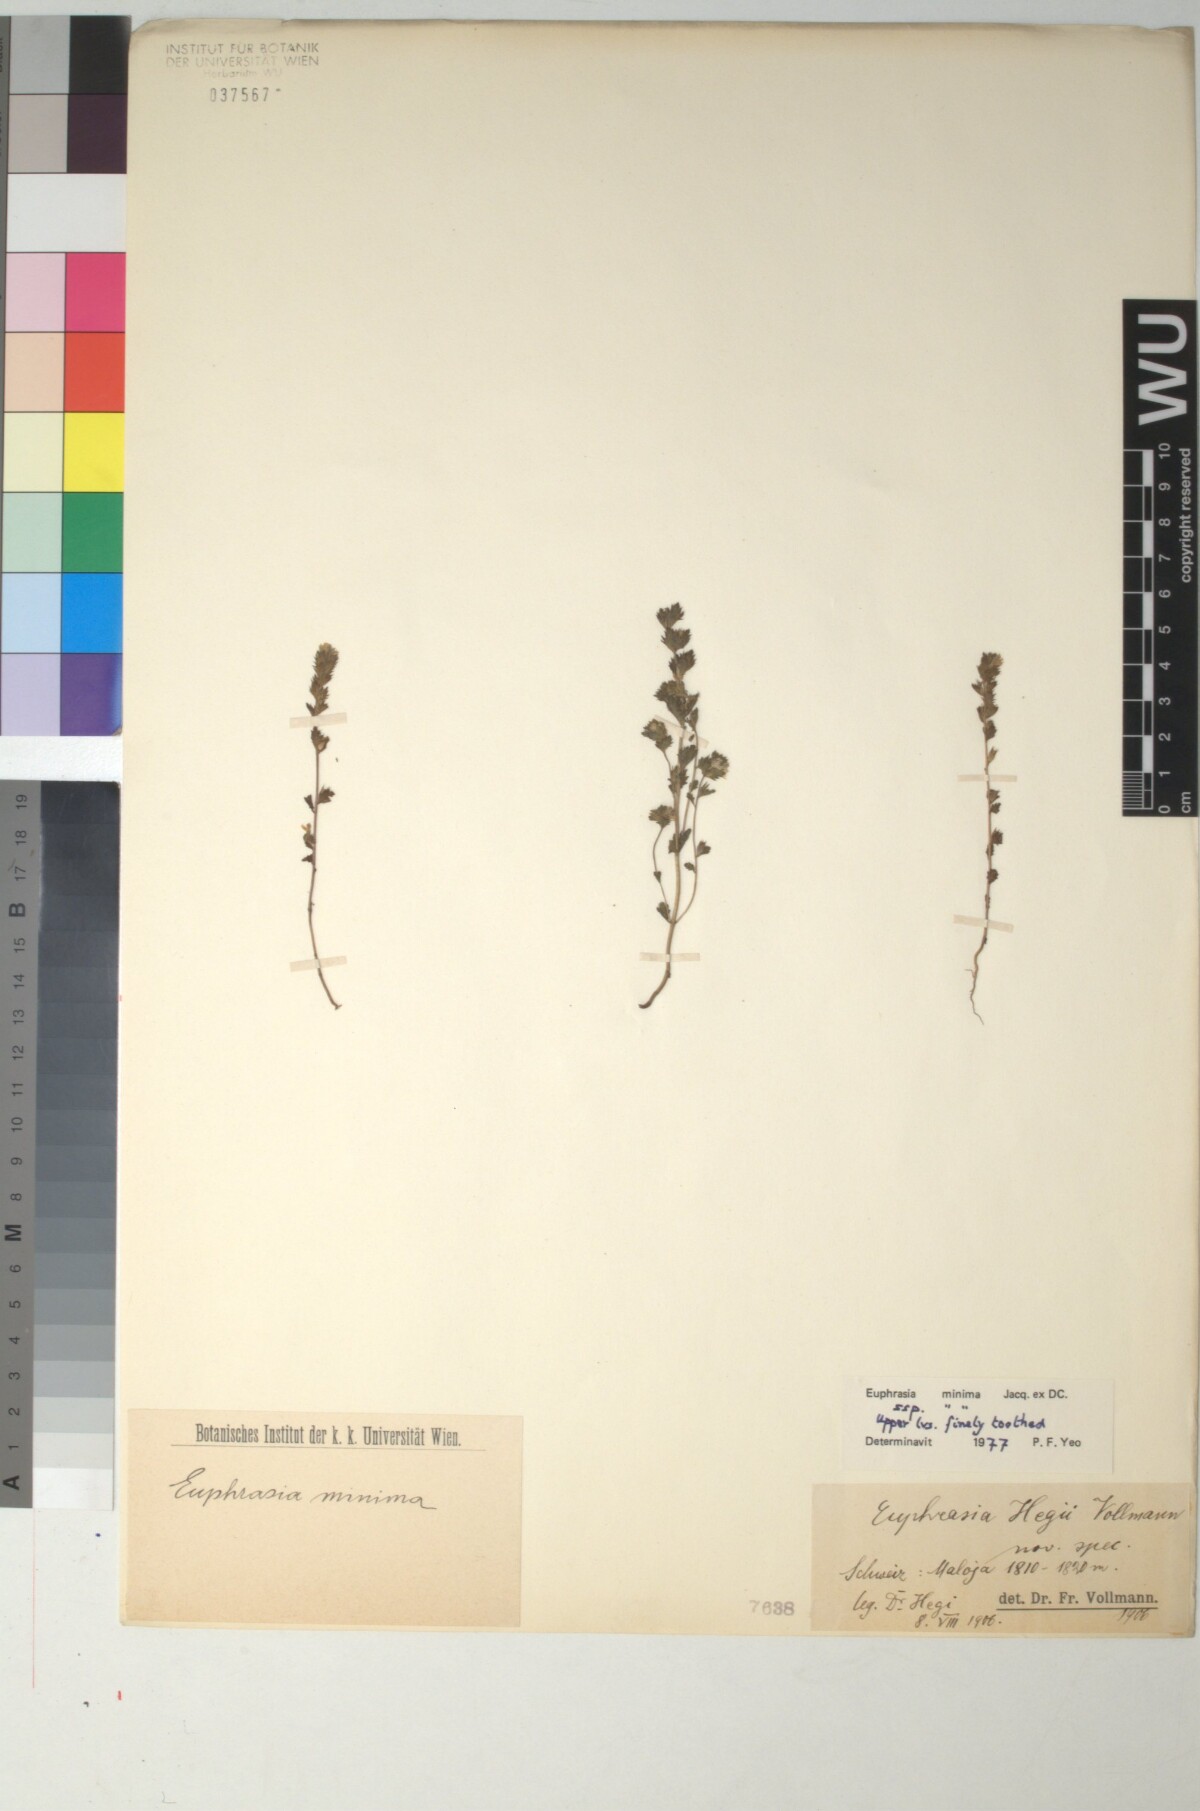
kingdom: Plantae
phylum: Tracheophyta
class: Magnoliopsida
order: Lamiales
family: Orobanchaceae
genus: Euphrasia
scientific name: Euphrasia hegii
